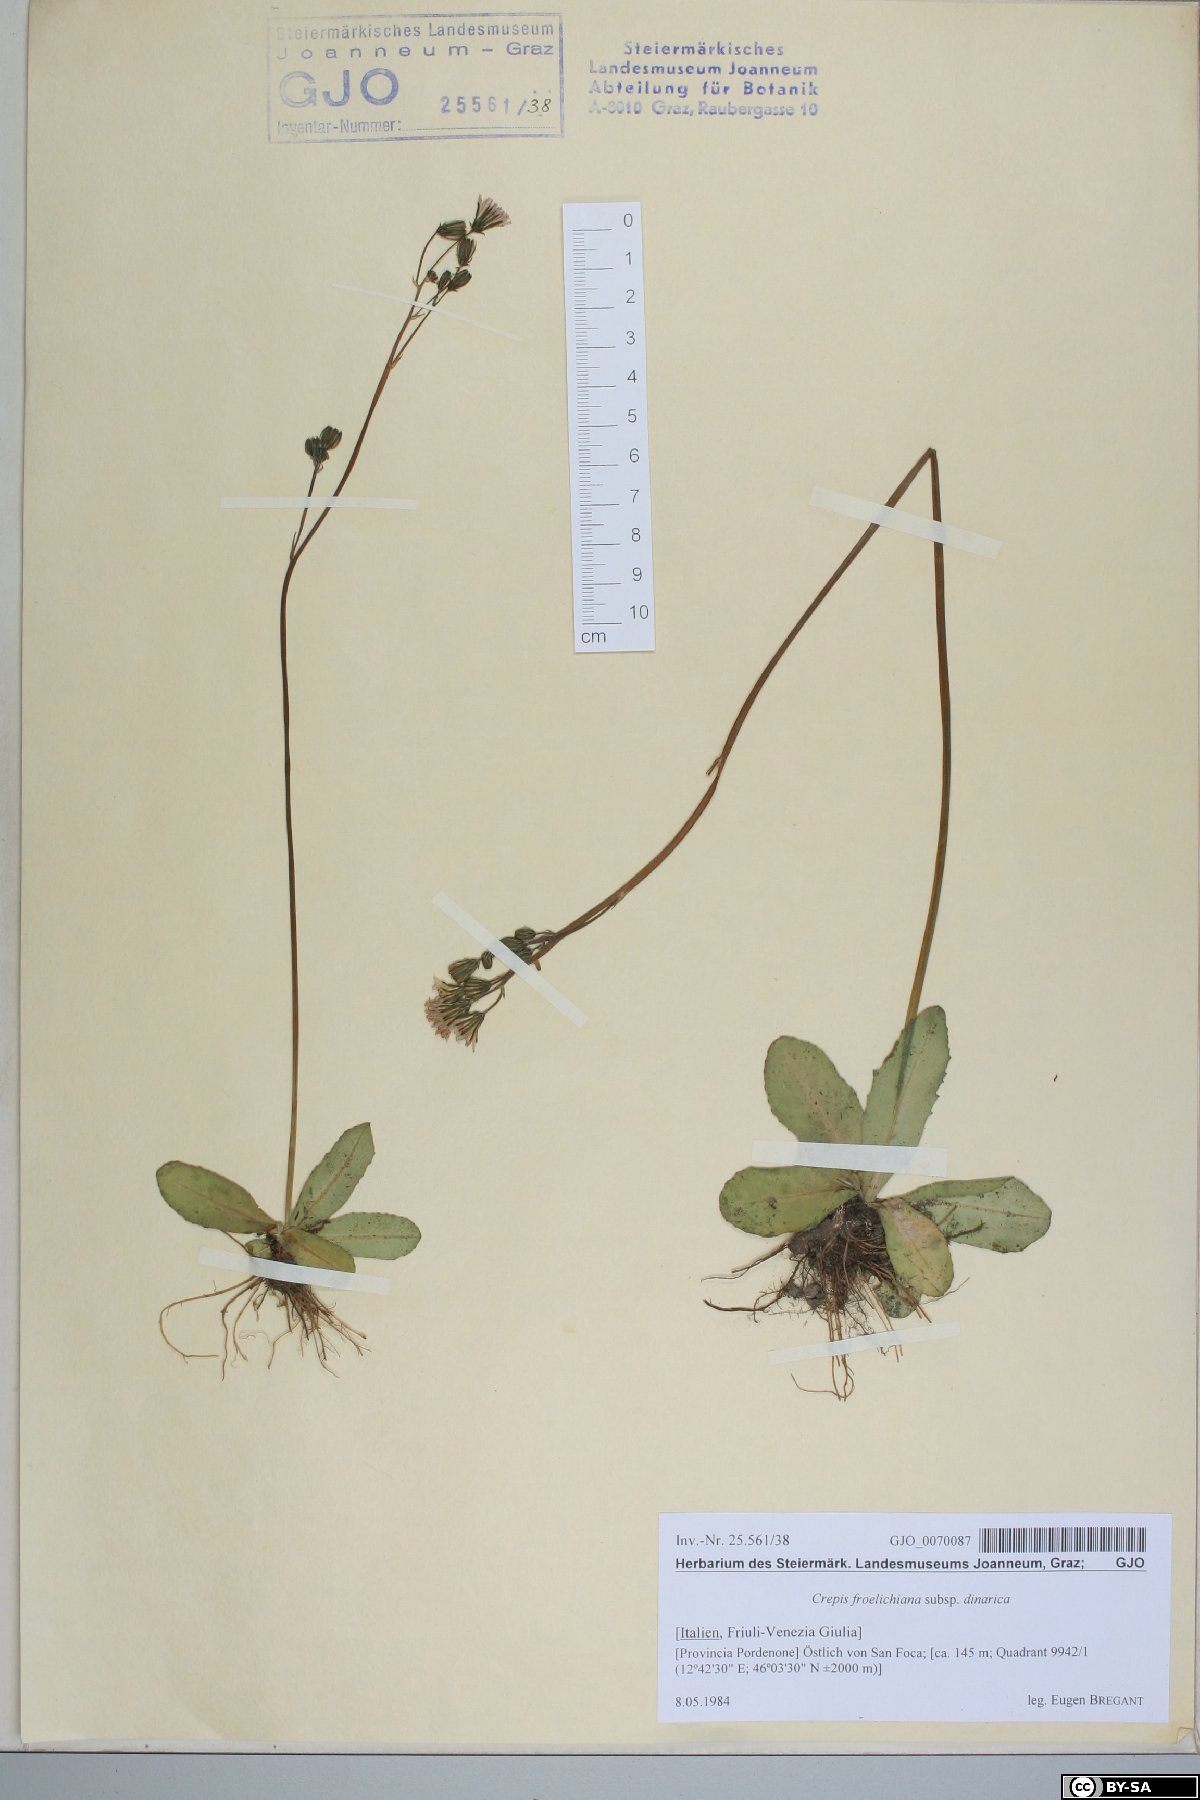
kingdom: Plantae
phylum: Tracheophyta
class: Magnoliopsida
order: Asterales
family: Asteraceae
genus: Crepis
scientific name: Crepis froelichiana
